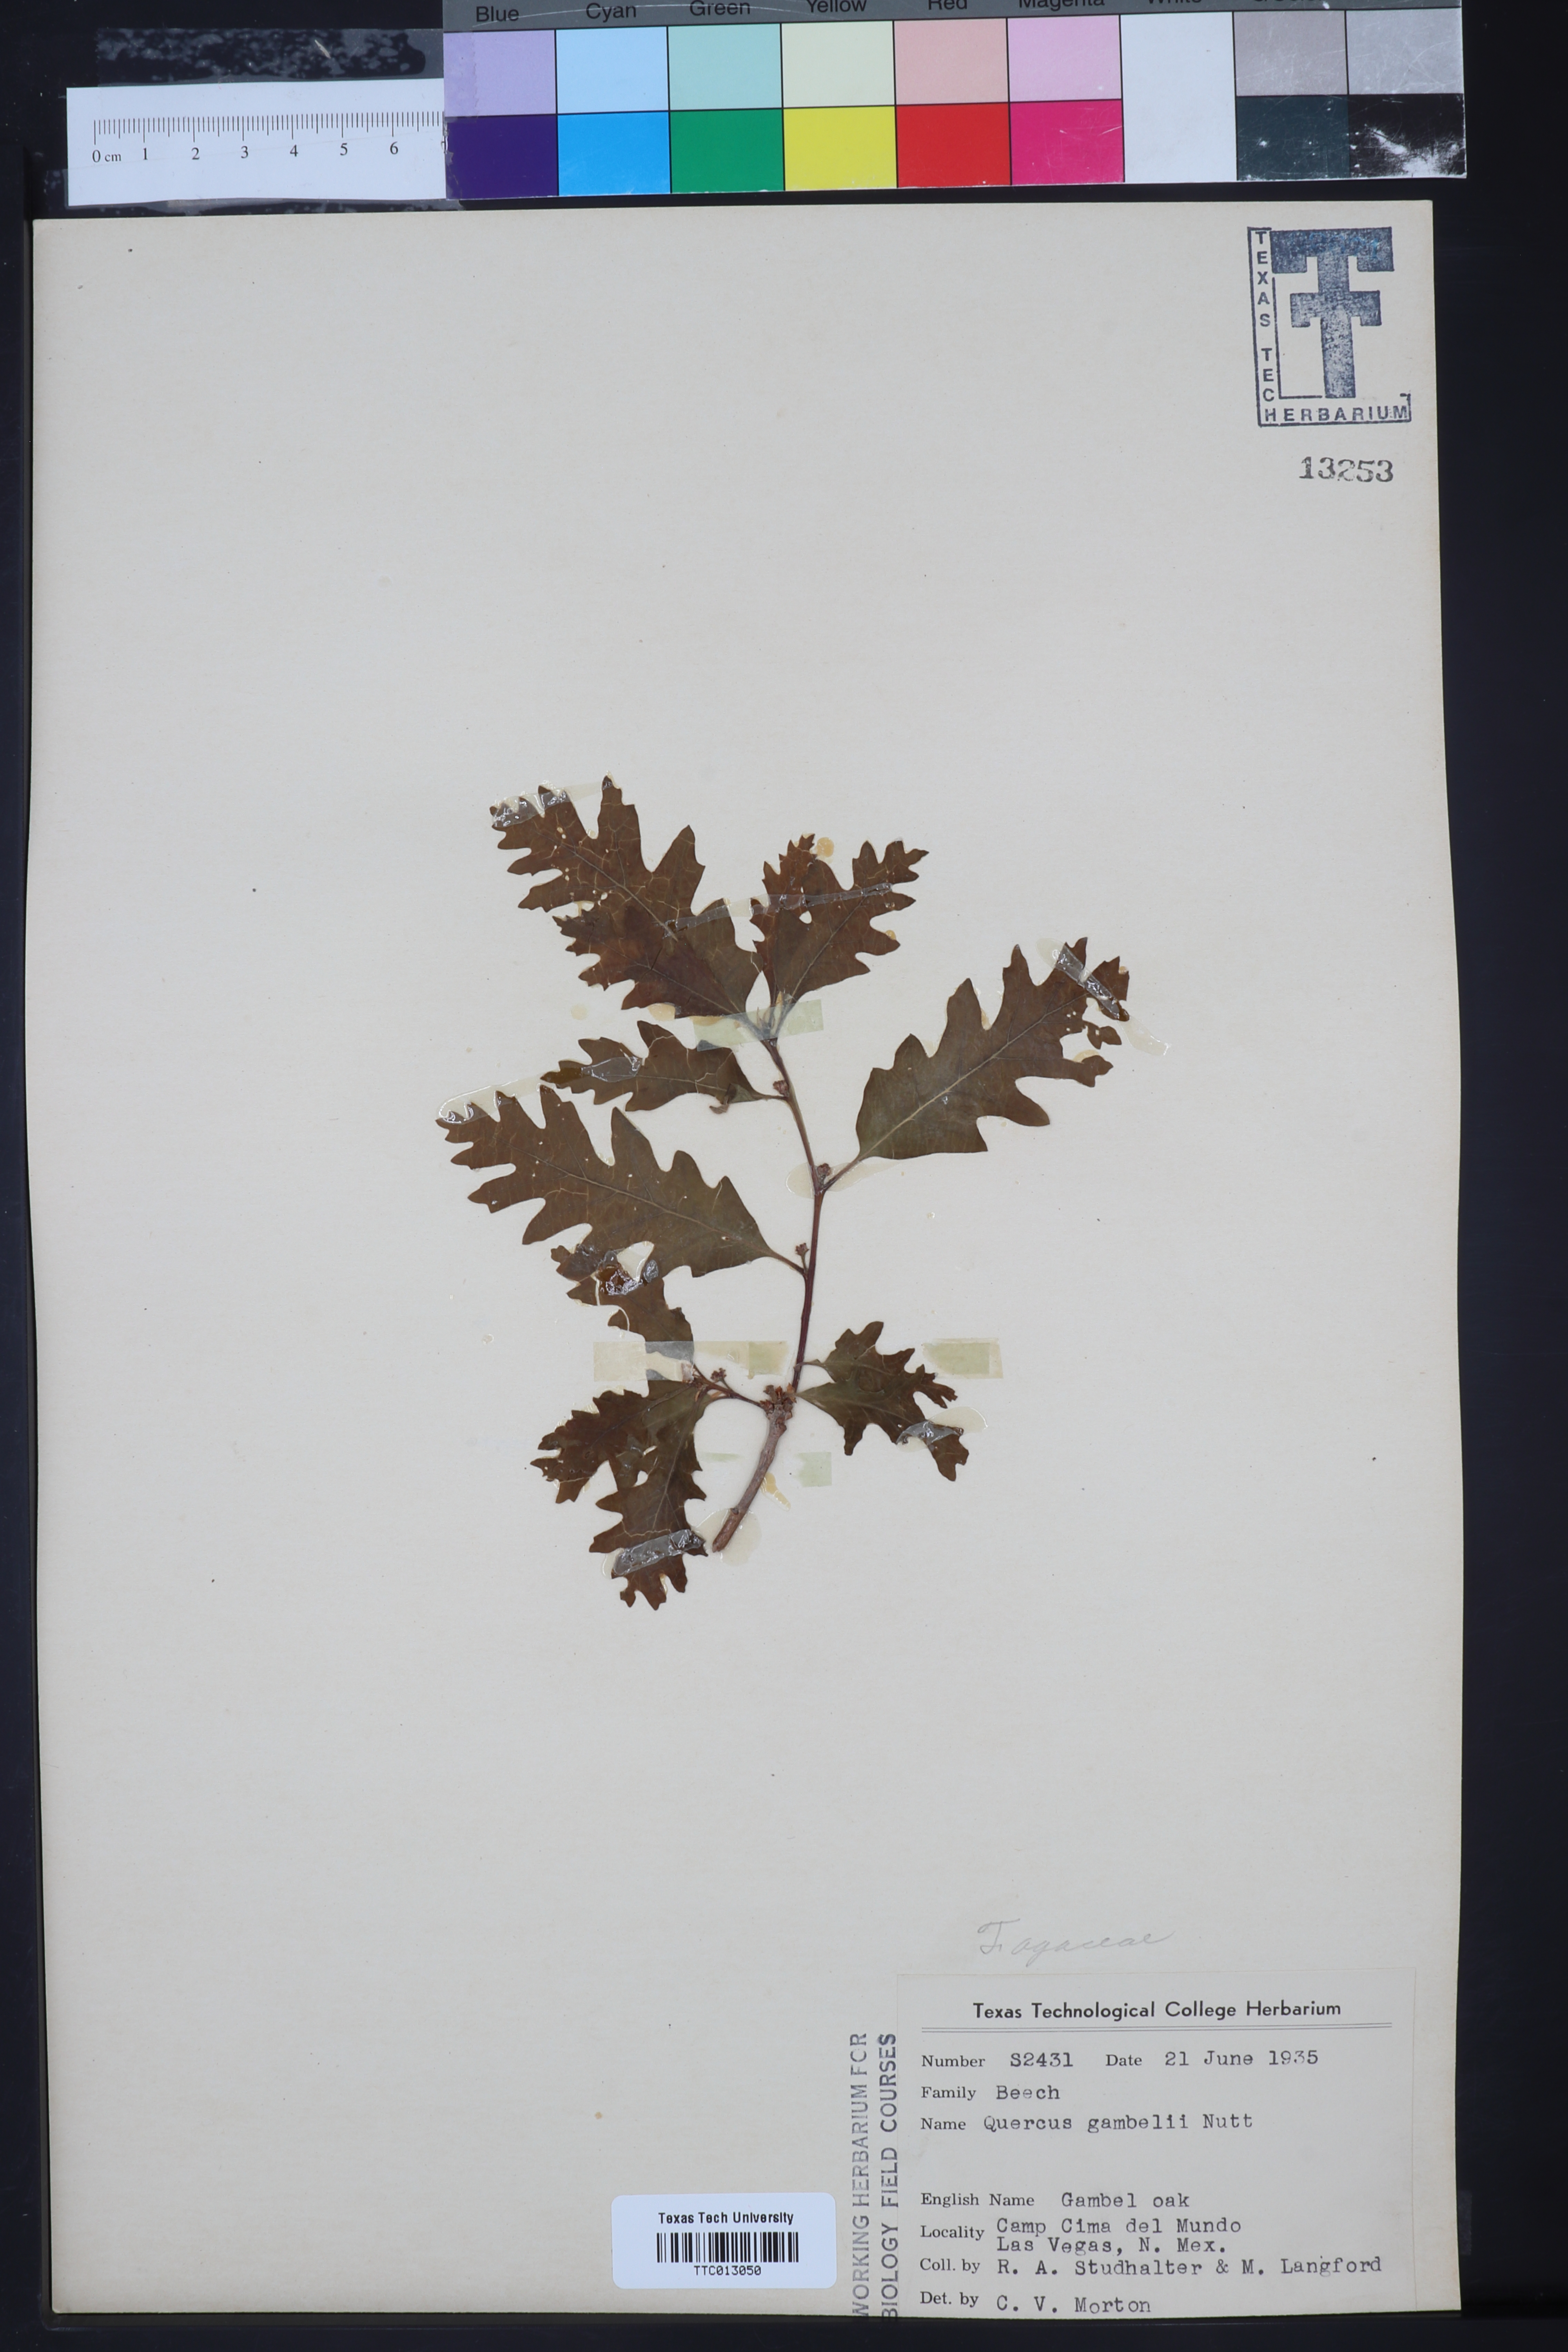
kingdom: Plantae
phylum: Tracheophyta
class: Magnoliopsida
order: Fagales
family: Fagaceae
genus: Quercus
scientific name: Quercus gambelii
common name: Gambel oak
